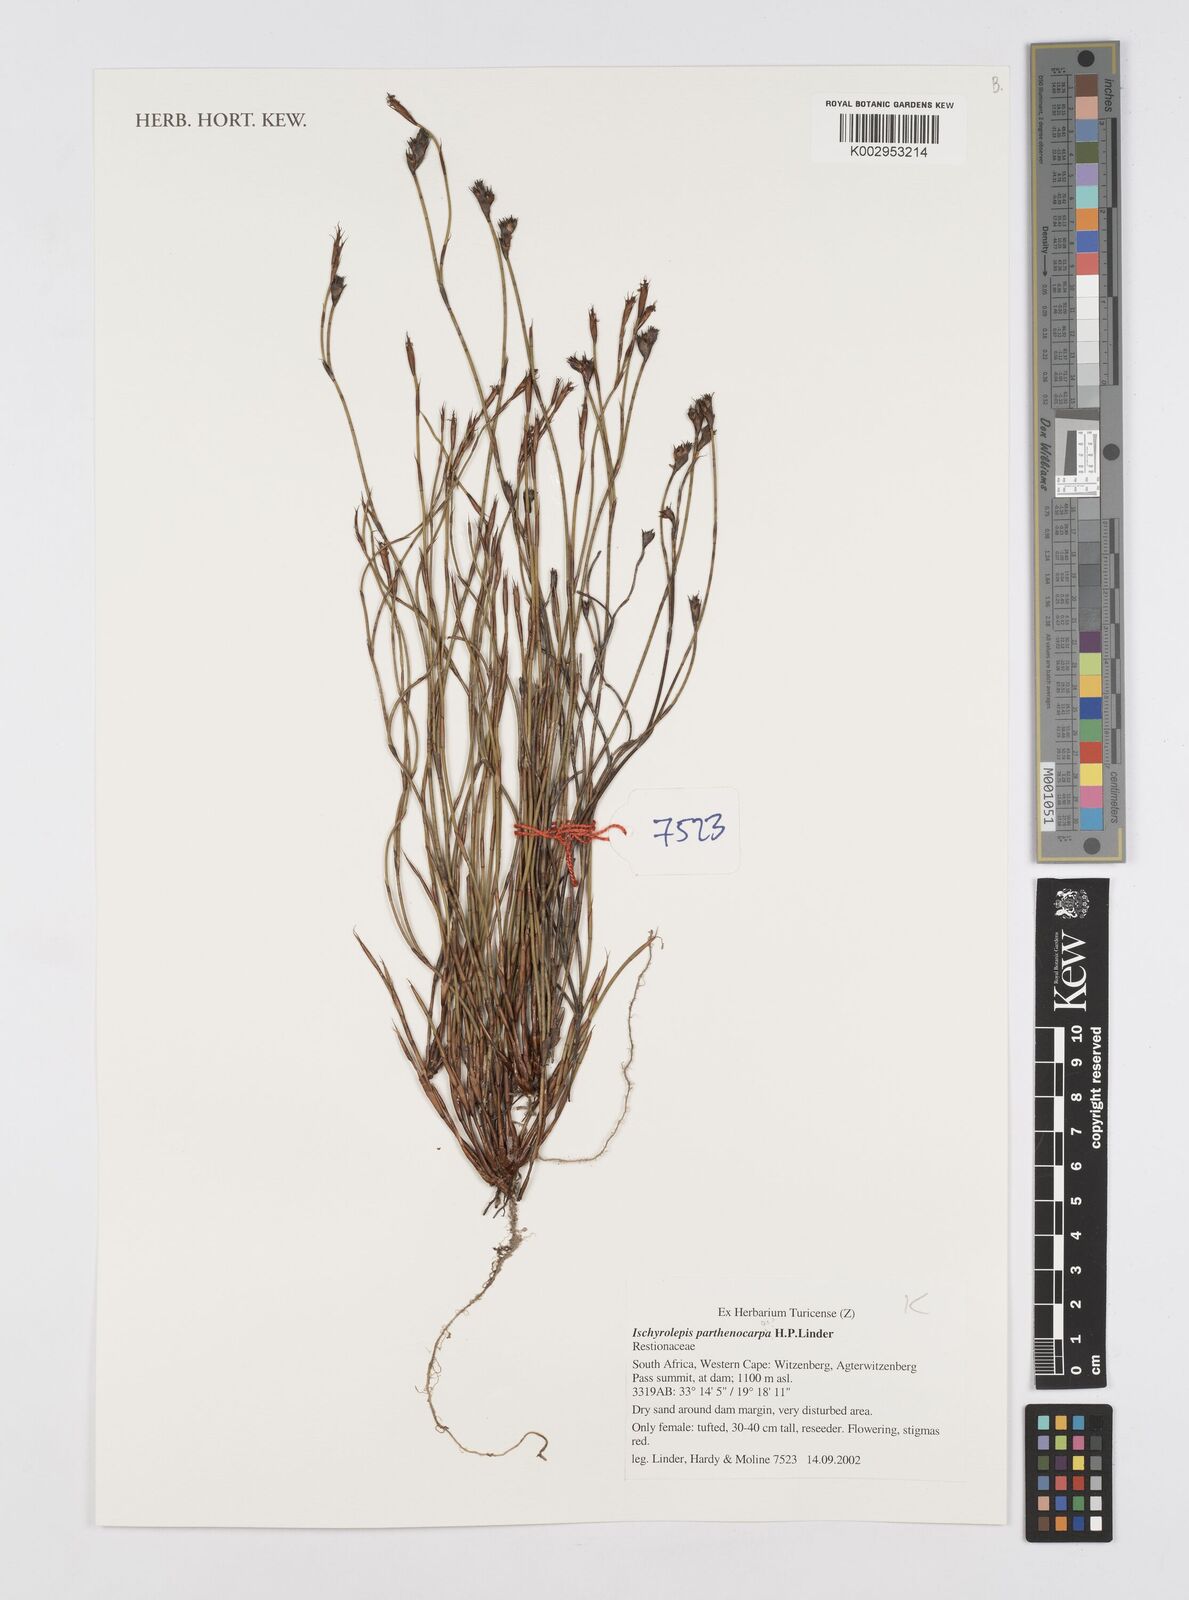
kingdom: Plantae
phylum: Tracheophyta
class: Liliopsida
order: Poales
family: Restionaceae
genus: Restio
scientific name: Restio
